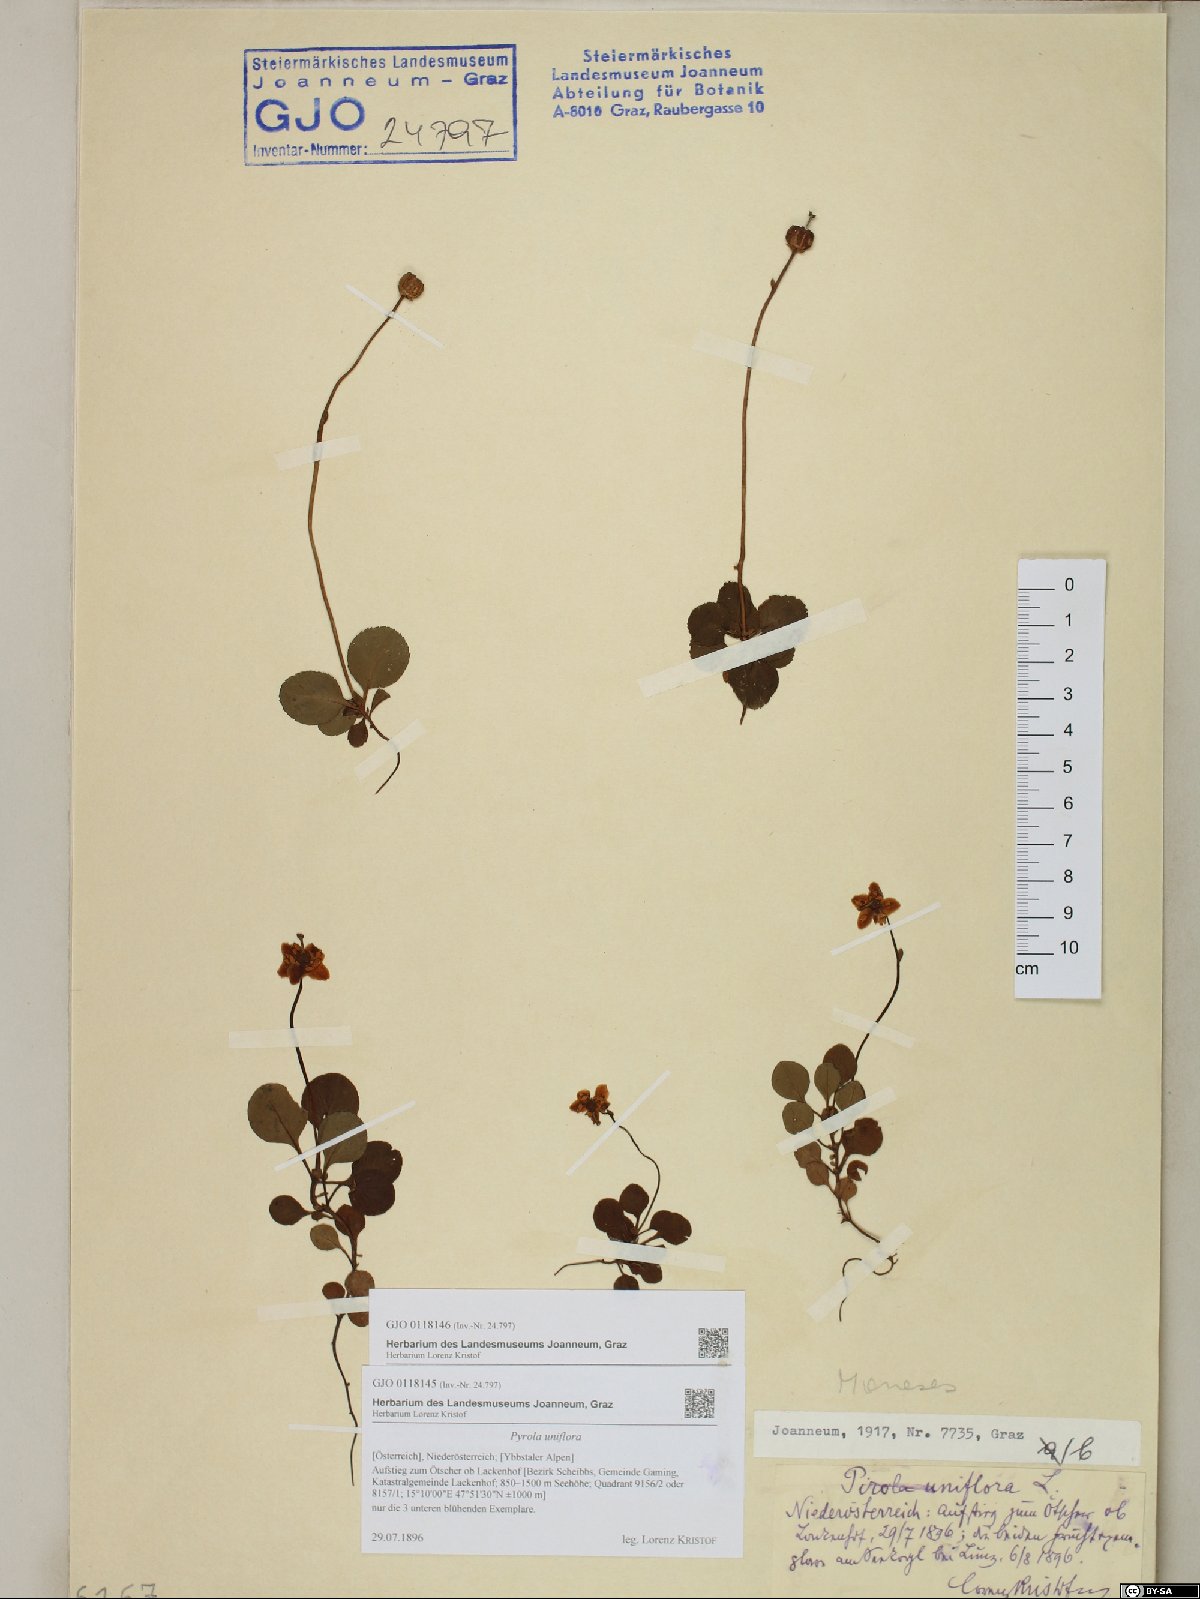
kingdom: Plantae
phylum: Tracheophyta
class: Magnoliopsida
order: Ericales
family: Ericaceae
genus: Moneses
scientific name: Moneses uniflora
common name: One-flowered wintergreen
